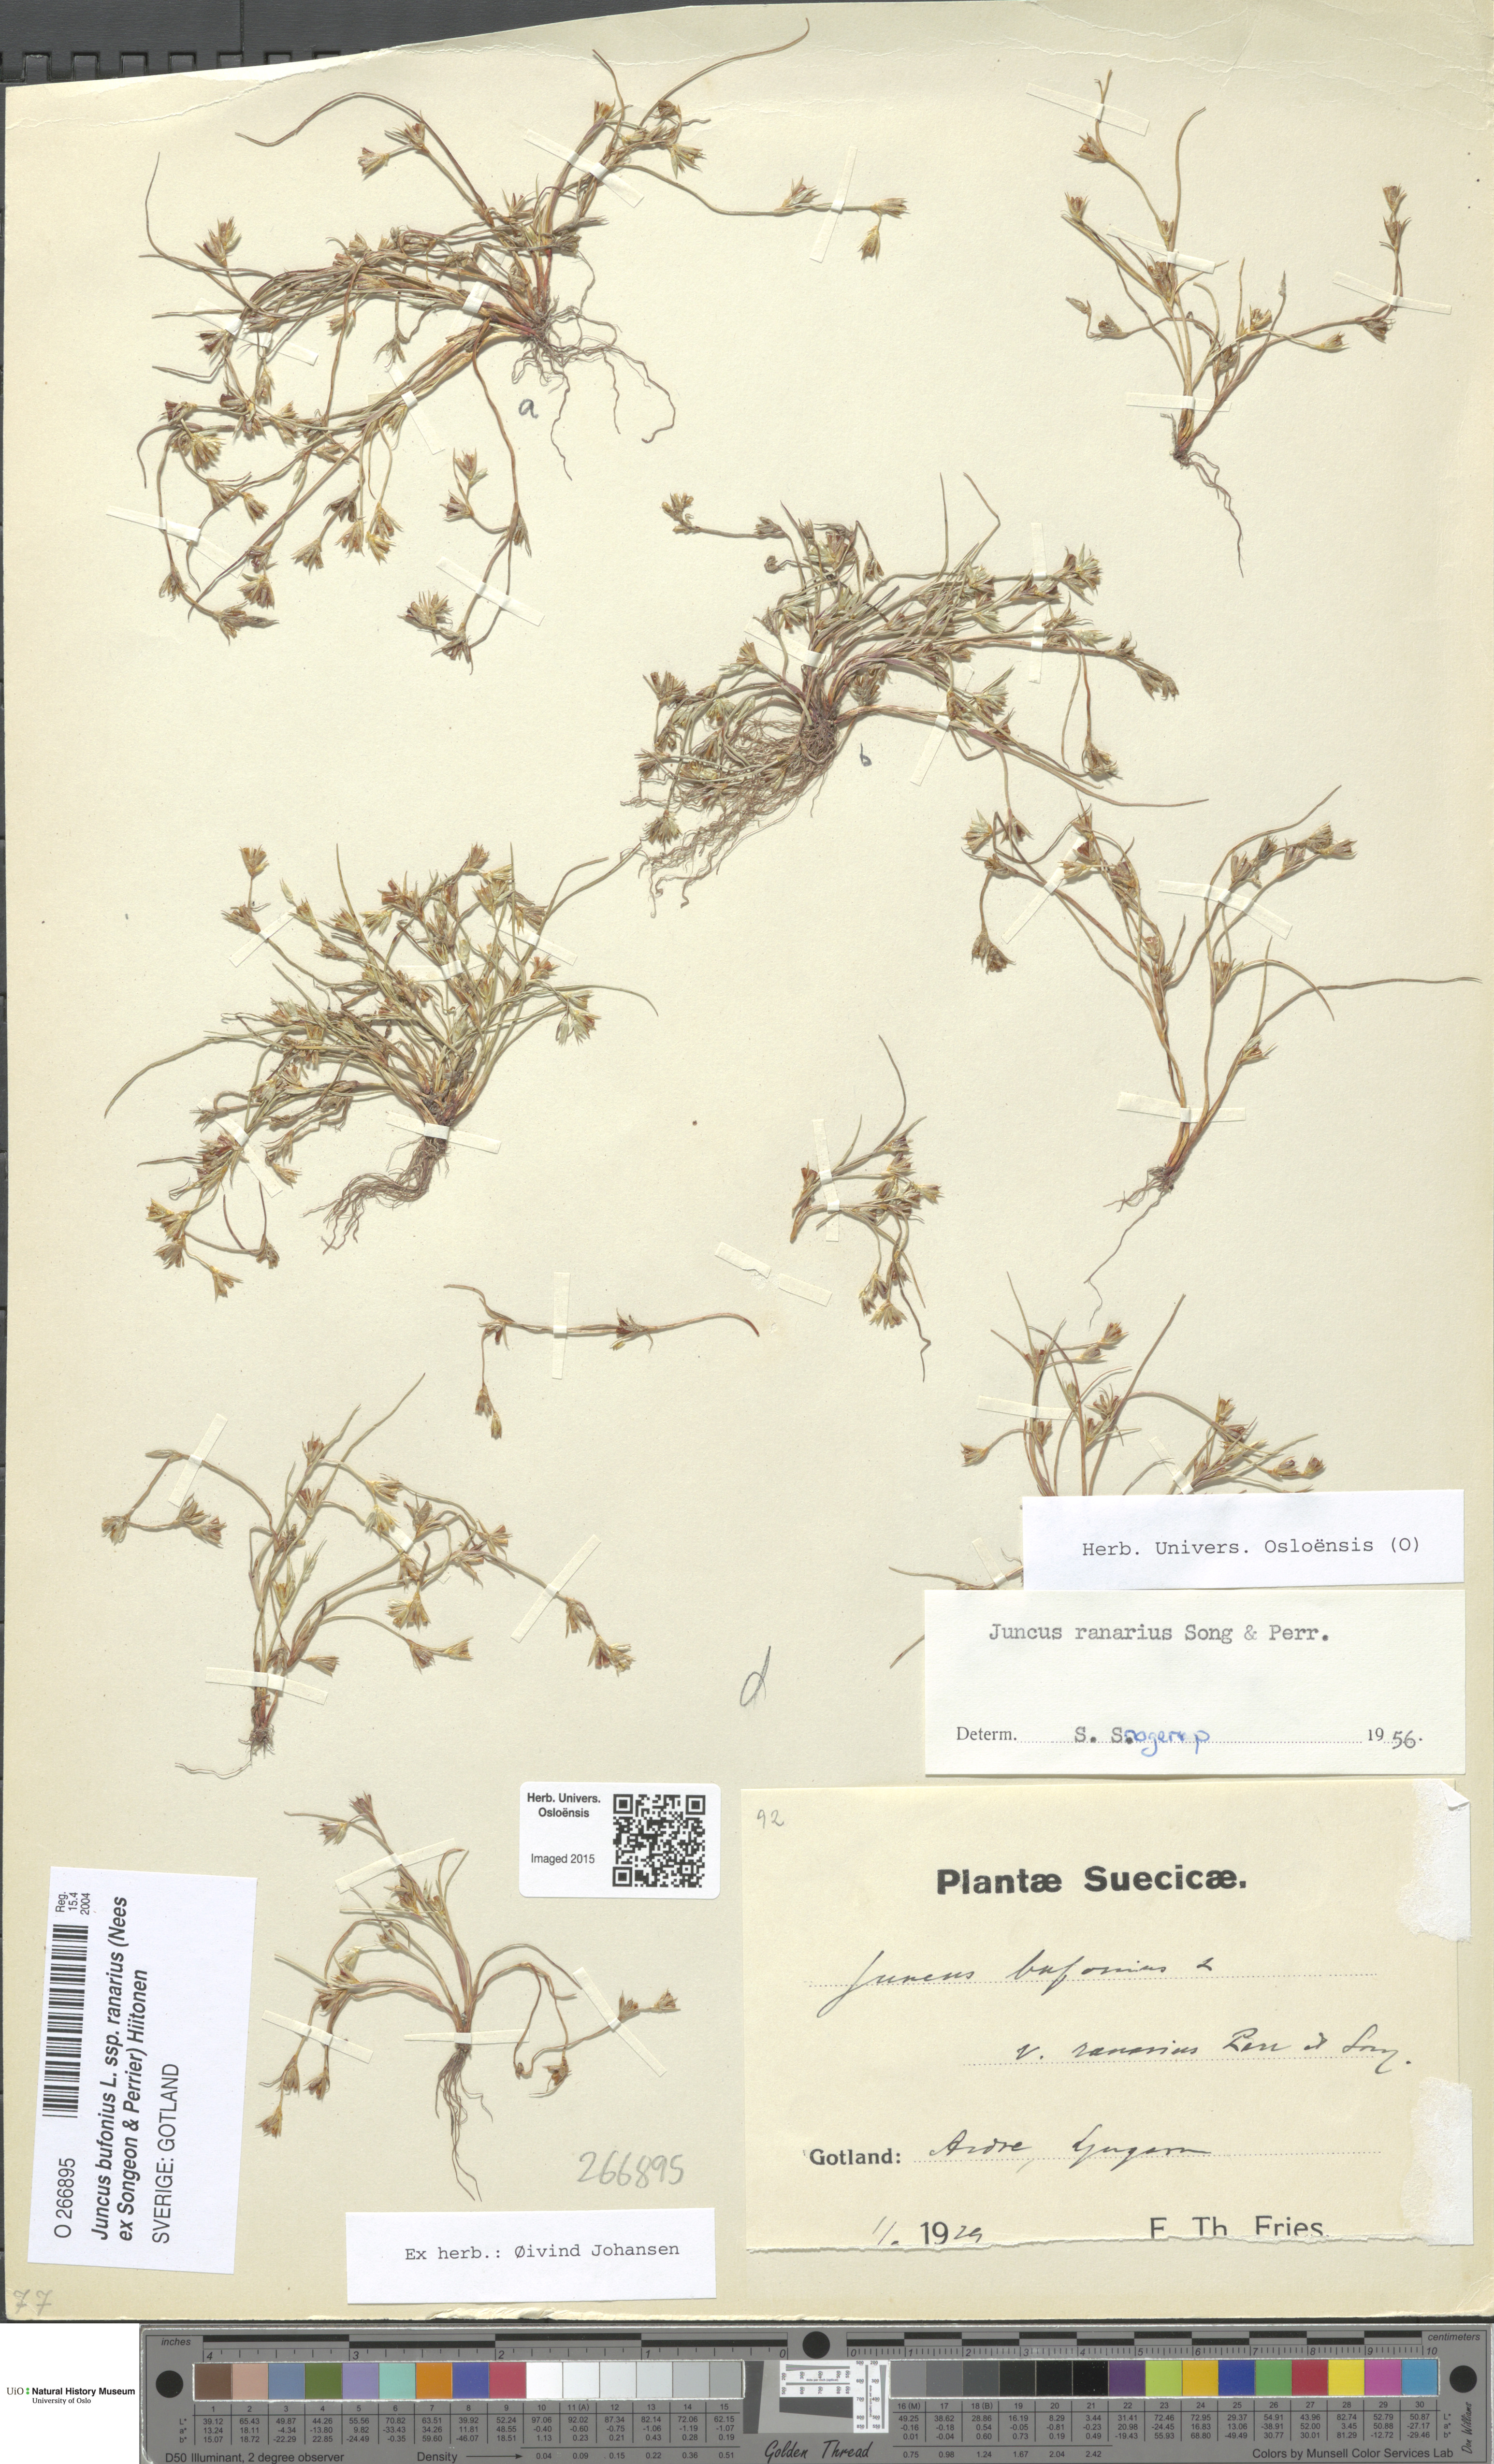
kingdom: Plantae
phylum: Tracheophyta
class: Liliopsida
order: Poales
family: Juncaceae
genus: Juncus
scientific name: Juncus ranarius
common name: Frog rush
